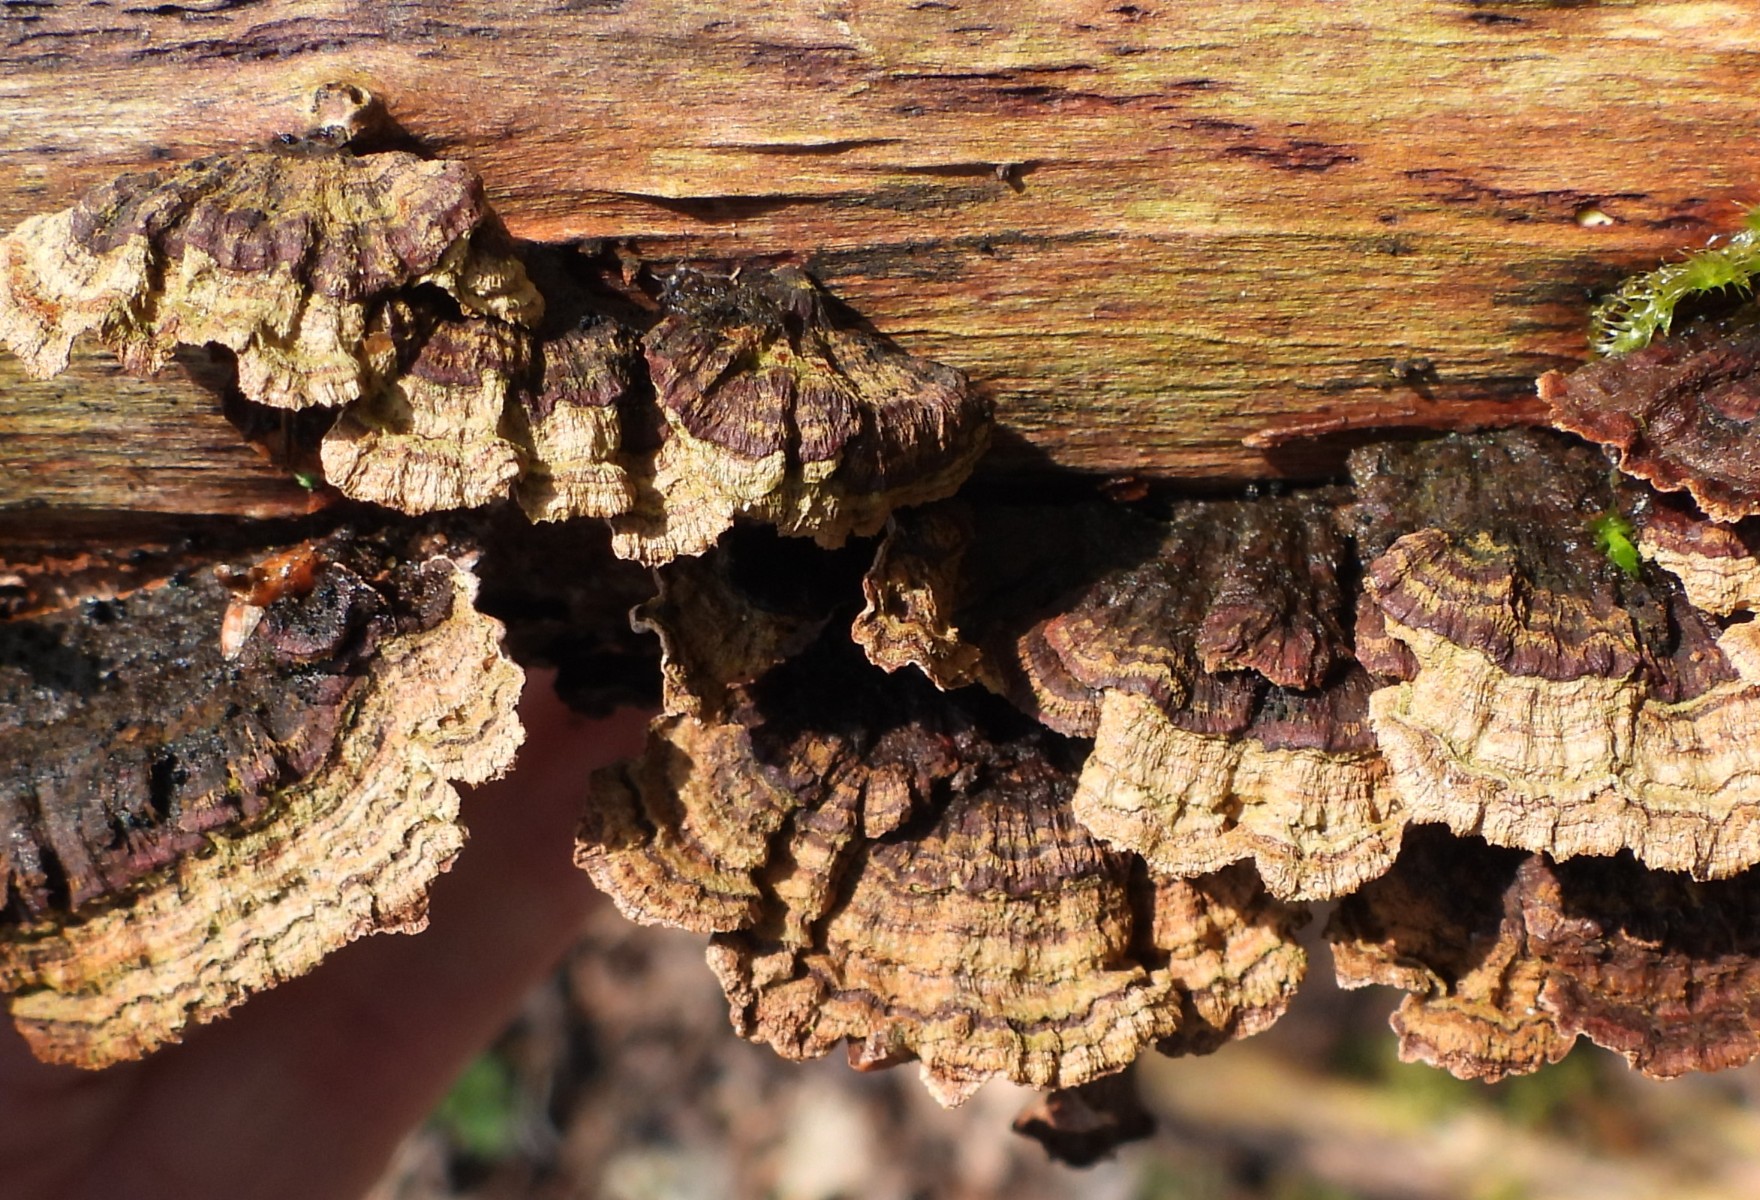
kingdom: Fungi
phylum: Basidiomycota
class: Agaricomycetes
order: Hymenochaetales
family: Hymenochaetaceae
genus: Hydnoporia
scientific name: Hydnoporia tabacina
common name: tobaksbrun ruslædersvamp
